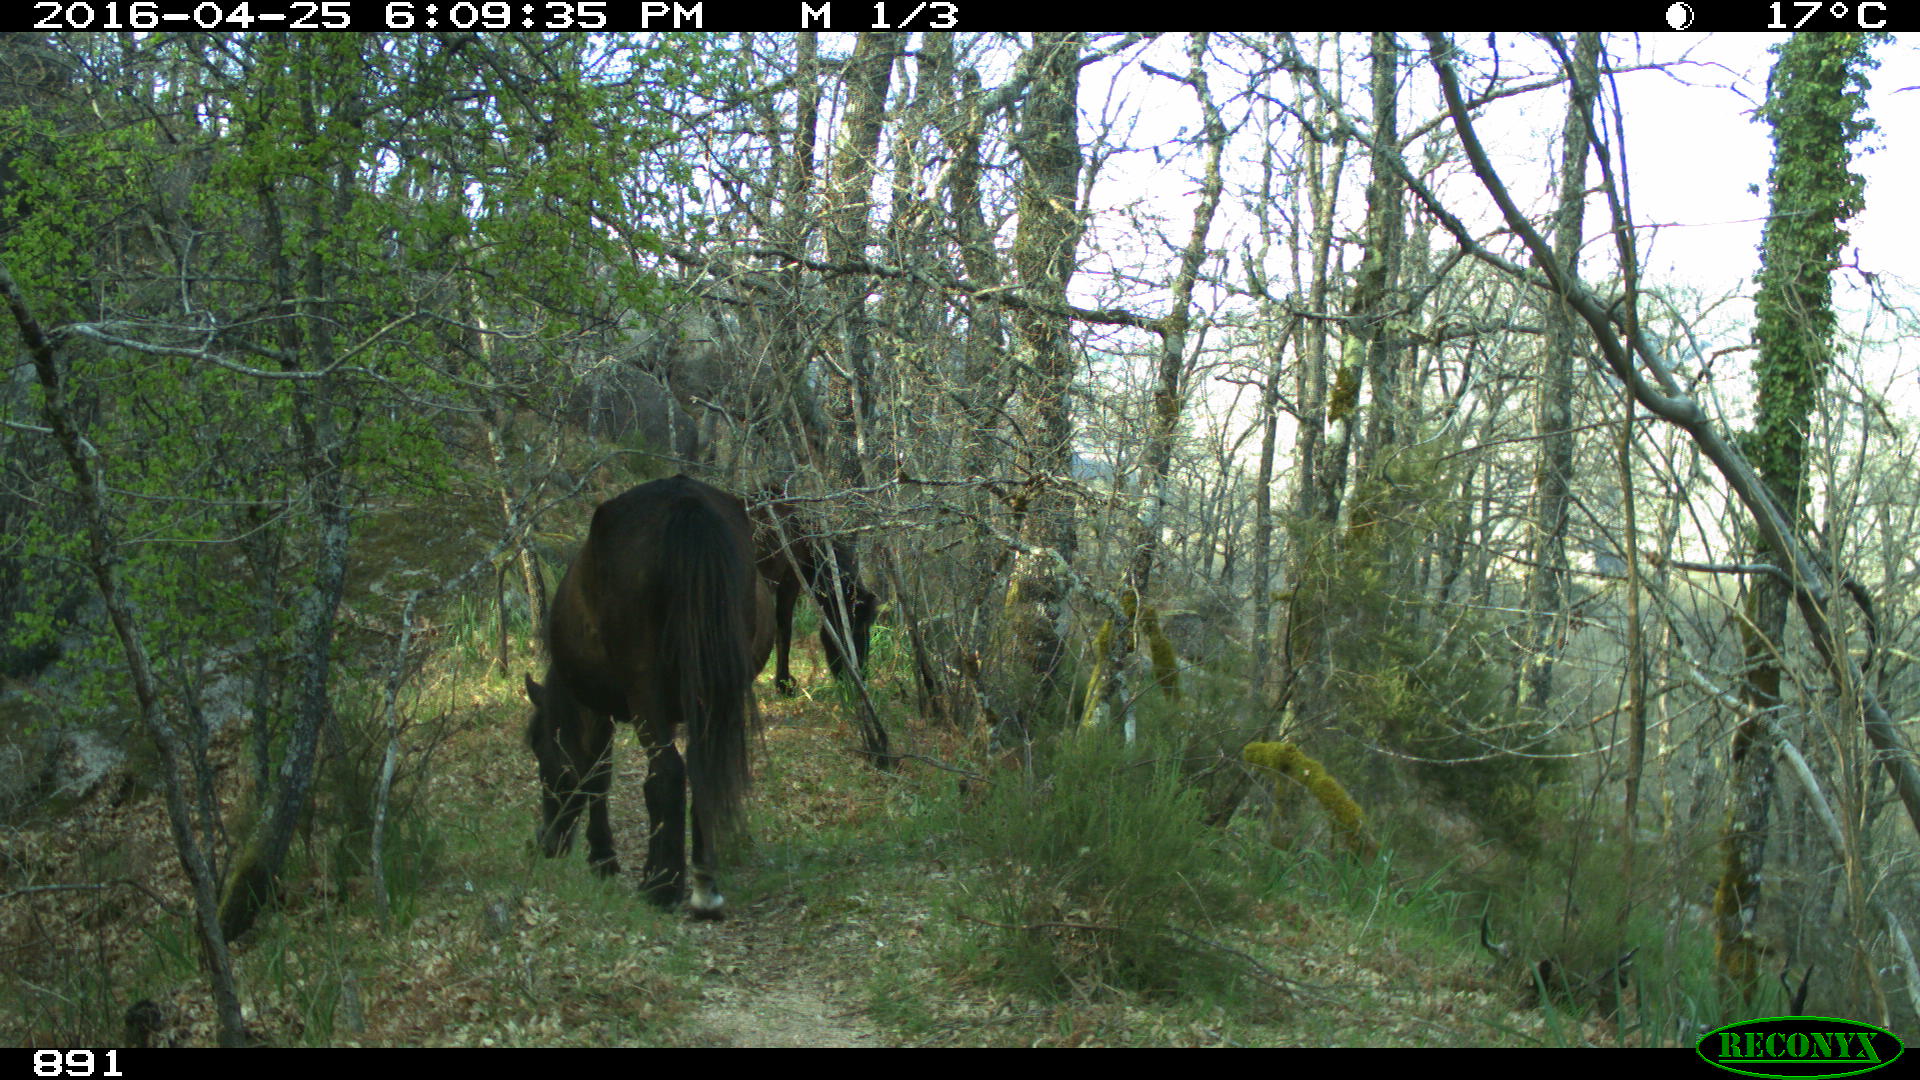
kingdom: Animalia
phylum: Chordata
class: Mammalia
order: Perissodactyla
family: Equidae
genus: Equus
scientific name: Equus caballus
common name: Horse
